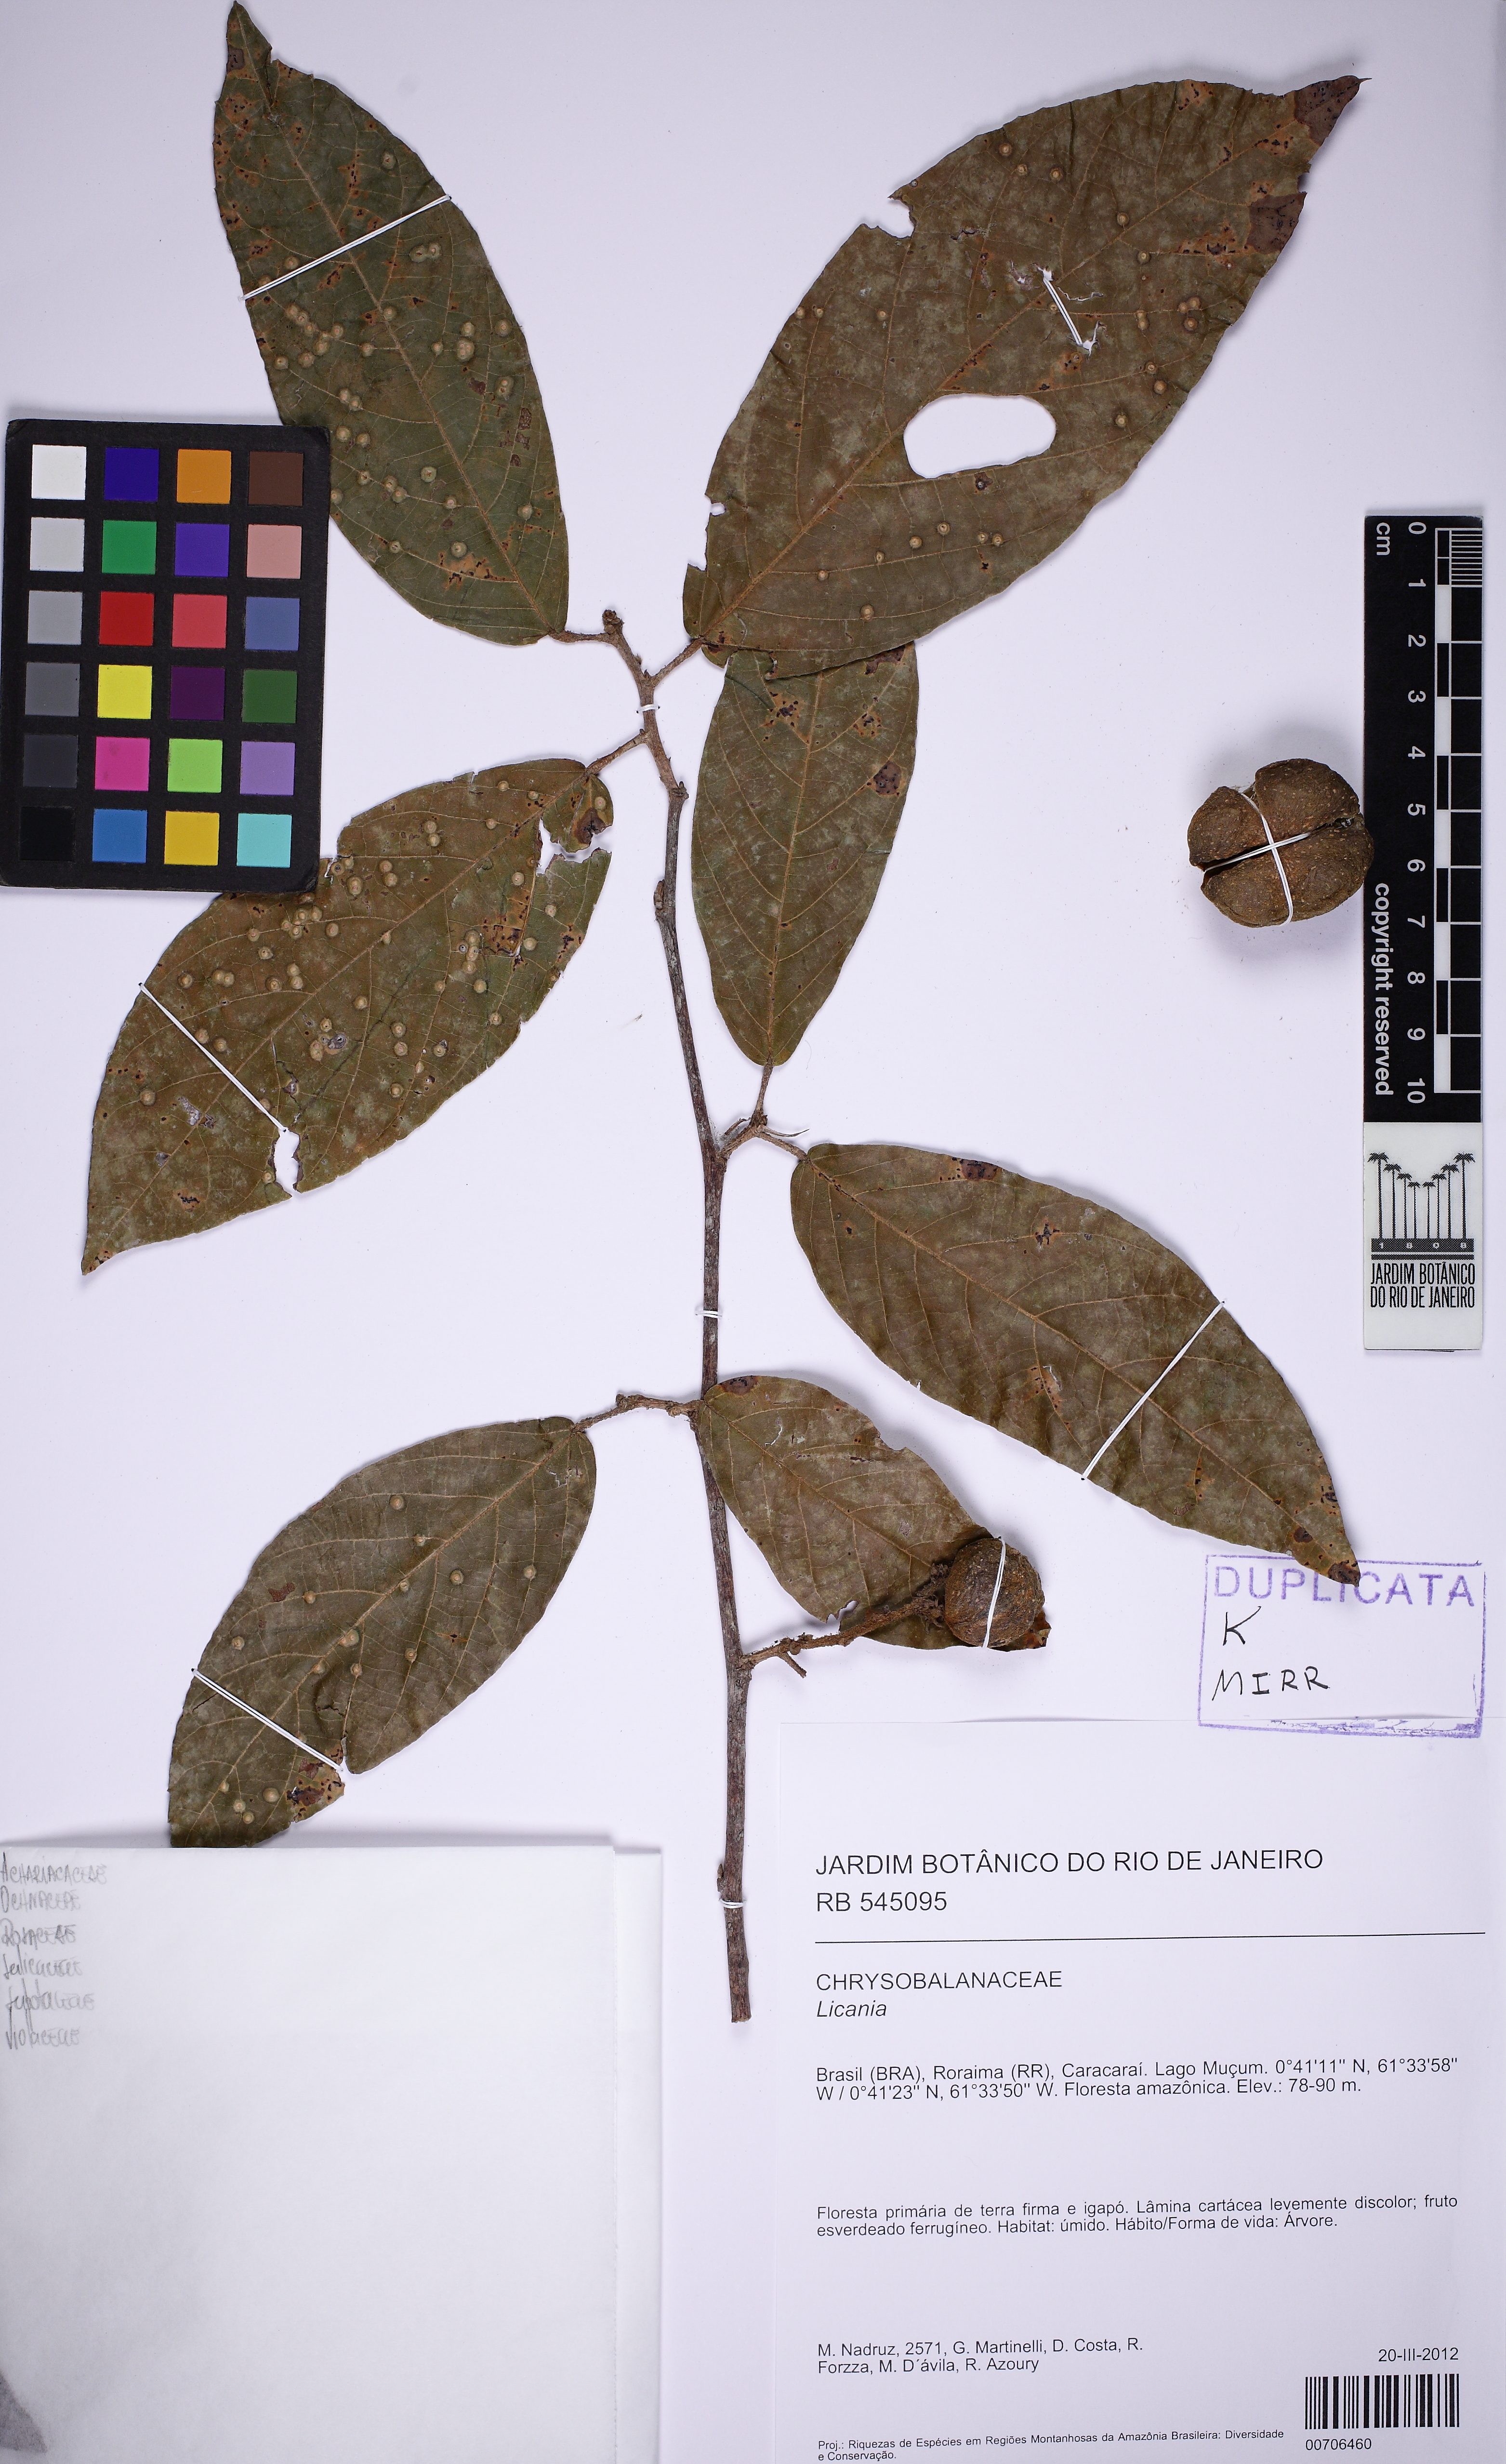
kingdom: Plantae
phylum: Tracheophyta
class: Magnoliopsida
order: Malpighiales
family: Chrysobalanaceae
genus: Licania
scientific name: Licania
